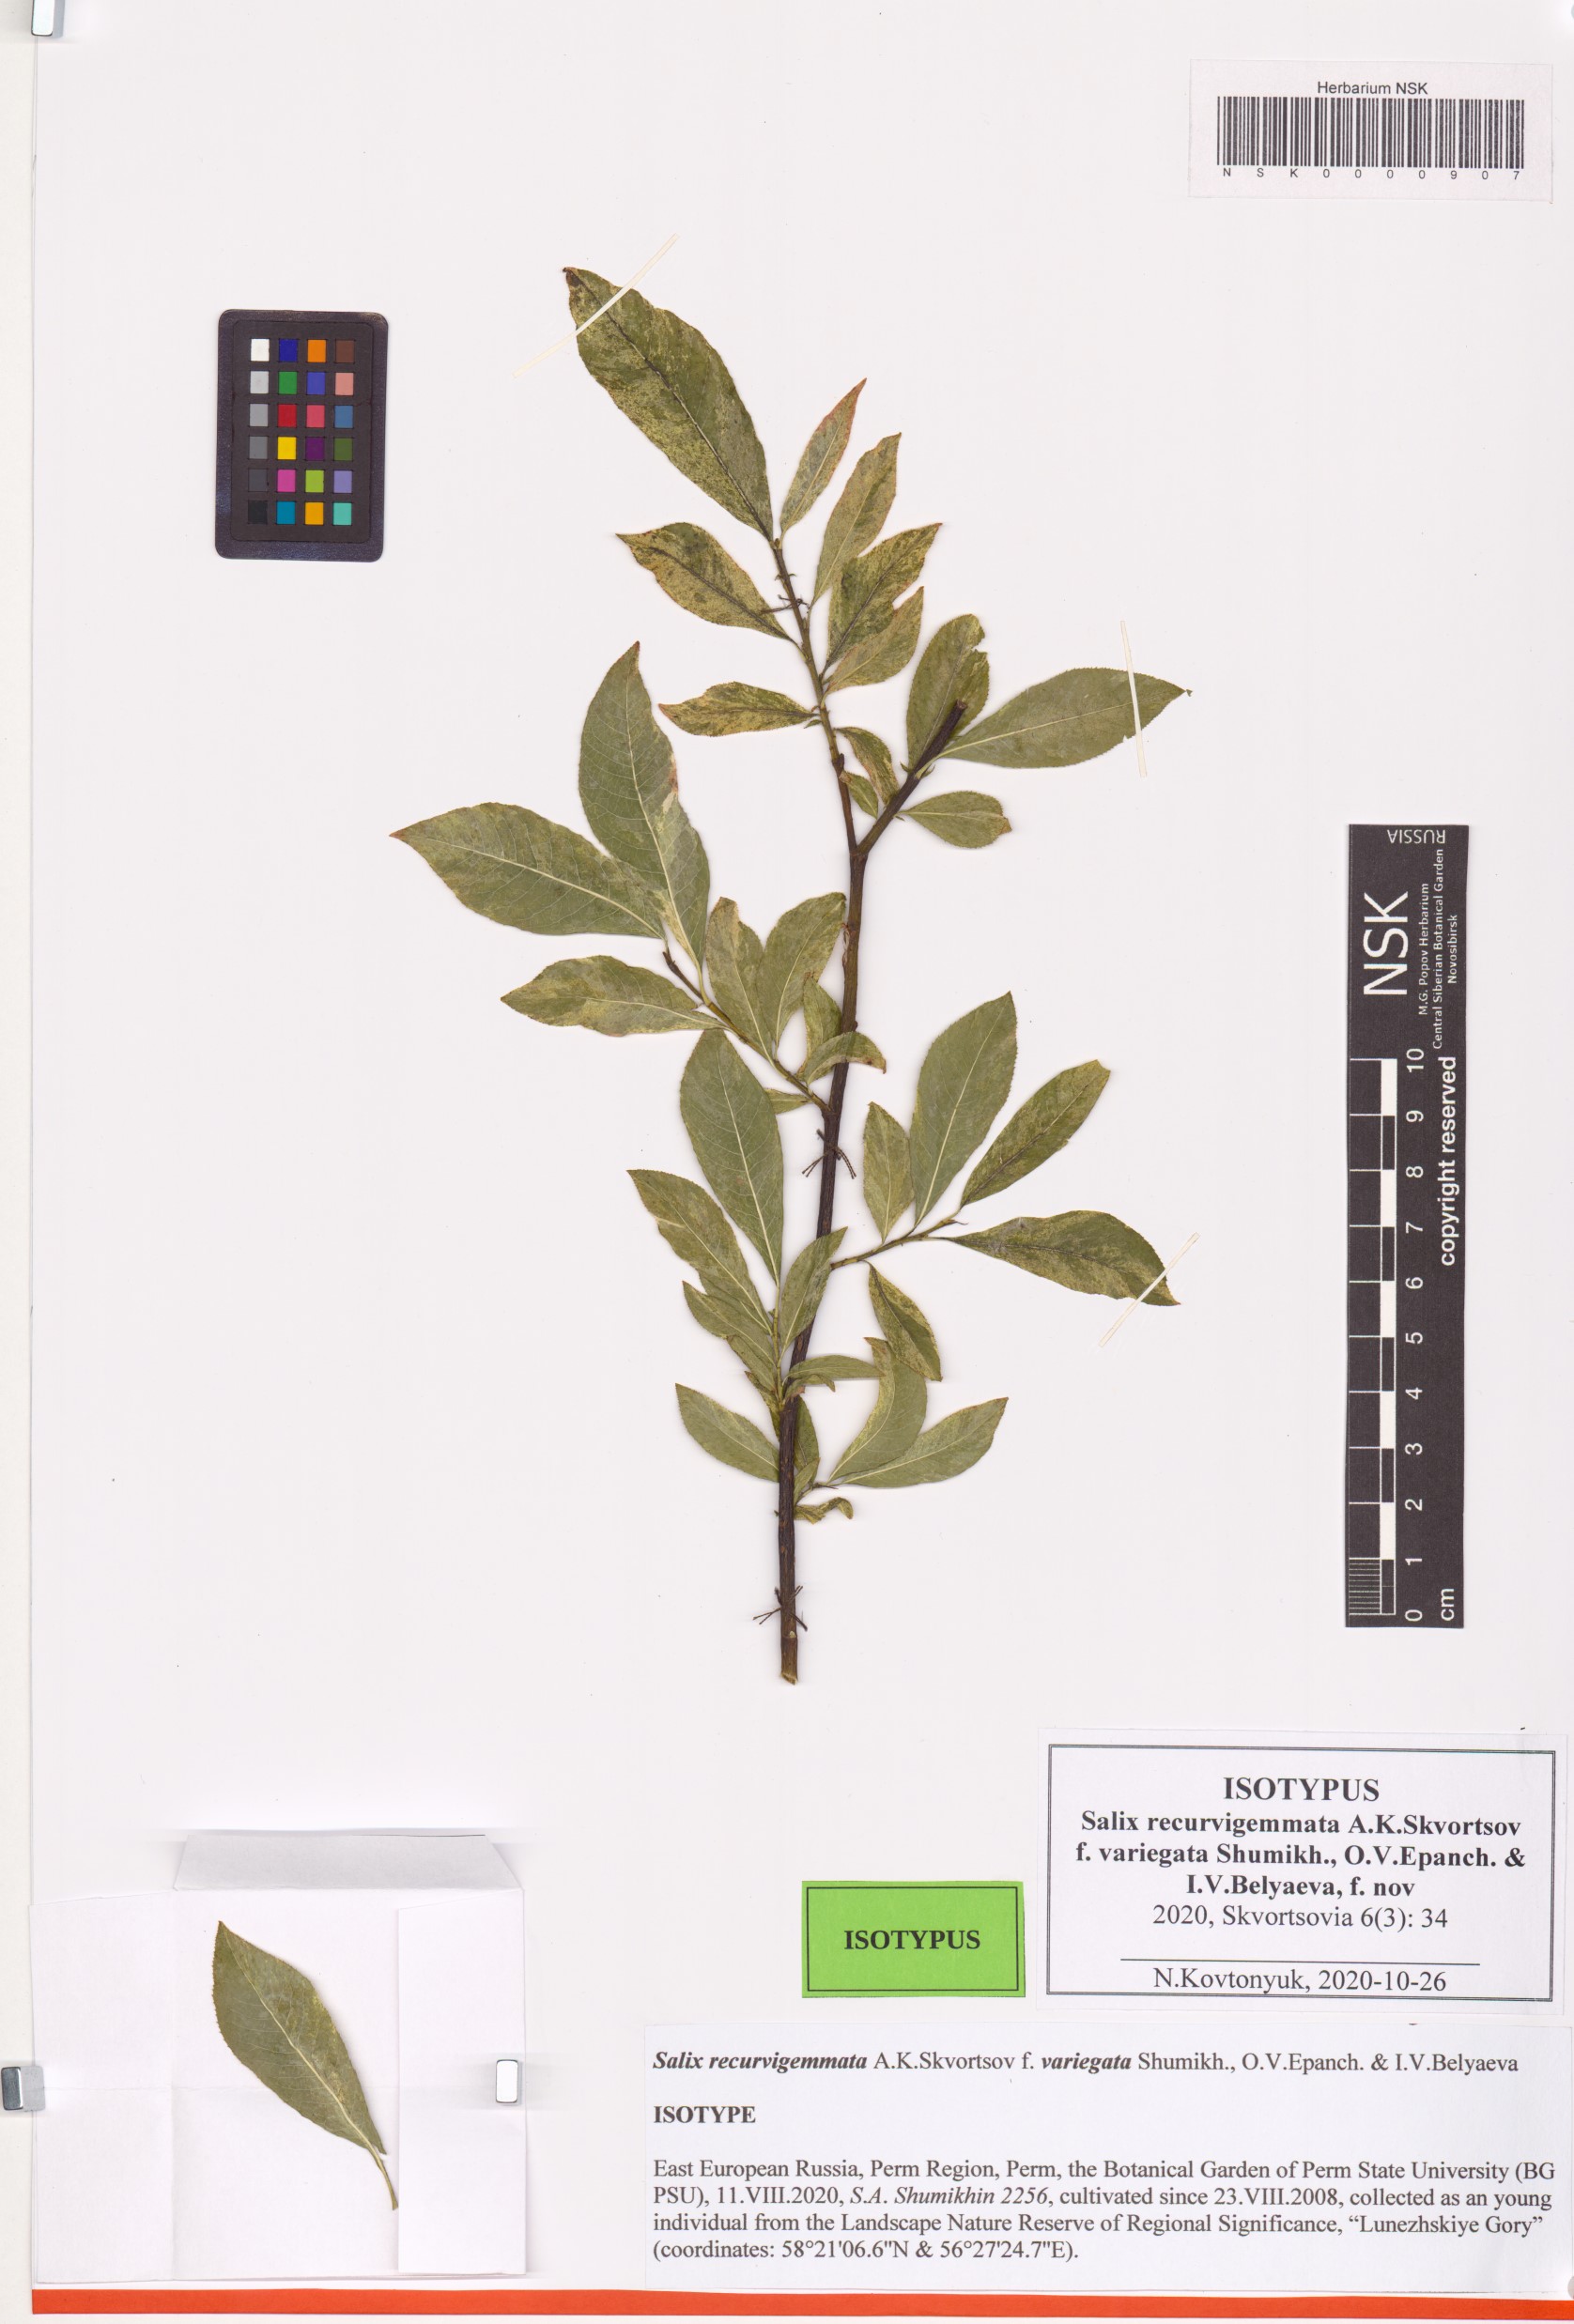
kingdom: Plantae
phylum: Tracheophyta
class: Magnoliopsida
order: Malpighiales
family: Salicaceae
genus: Salix
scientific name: Salix recurvigemmata
